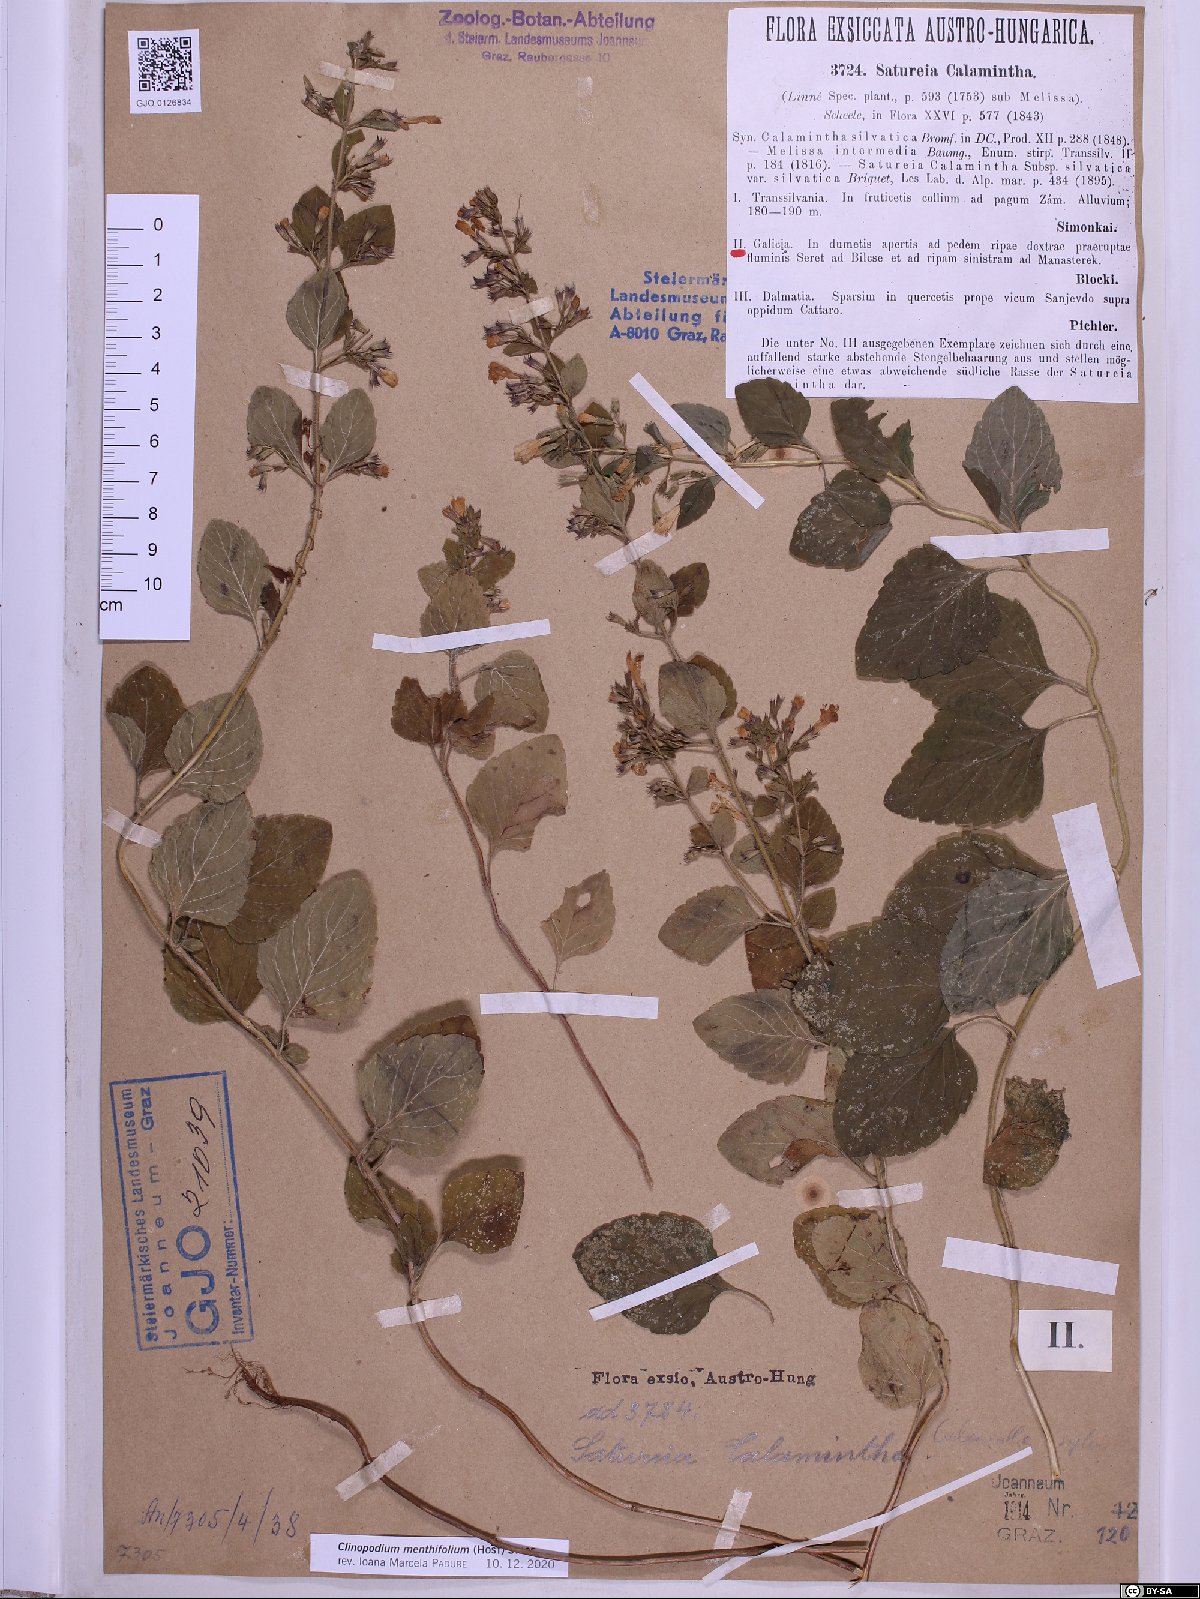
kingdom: Plantae
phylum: Tracheophyta
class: Magnoliopsida
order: Lamiales
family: Lamiaceae
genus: Clinopodium
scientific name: Clinopodium menthifolium
